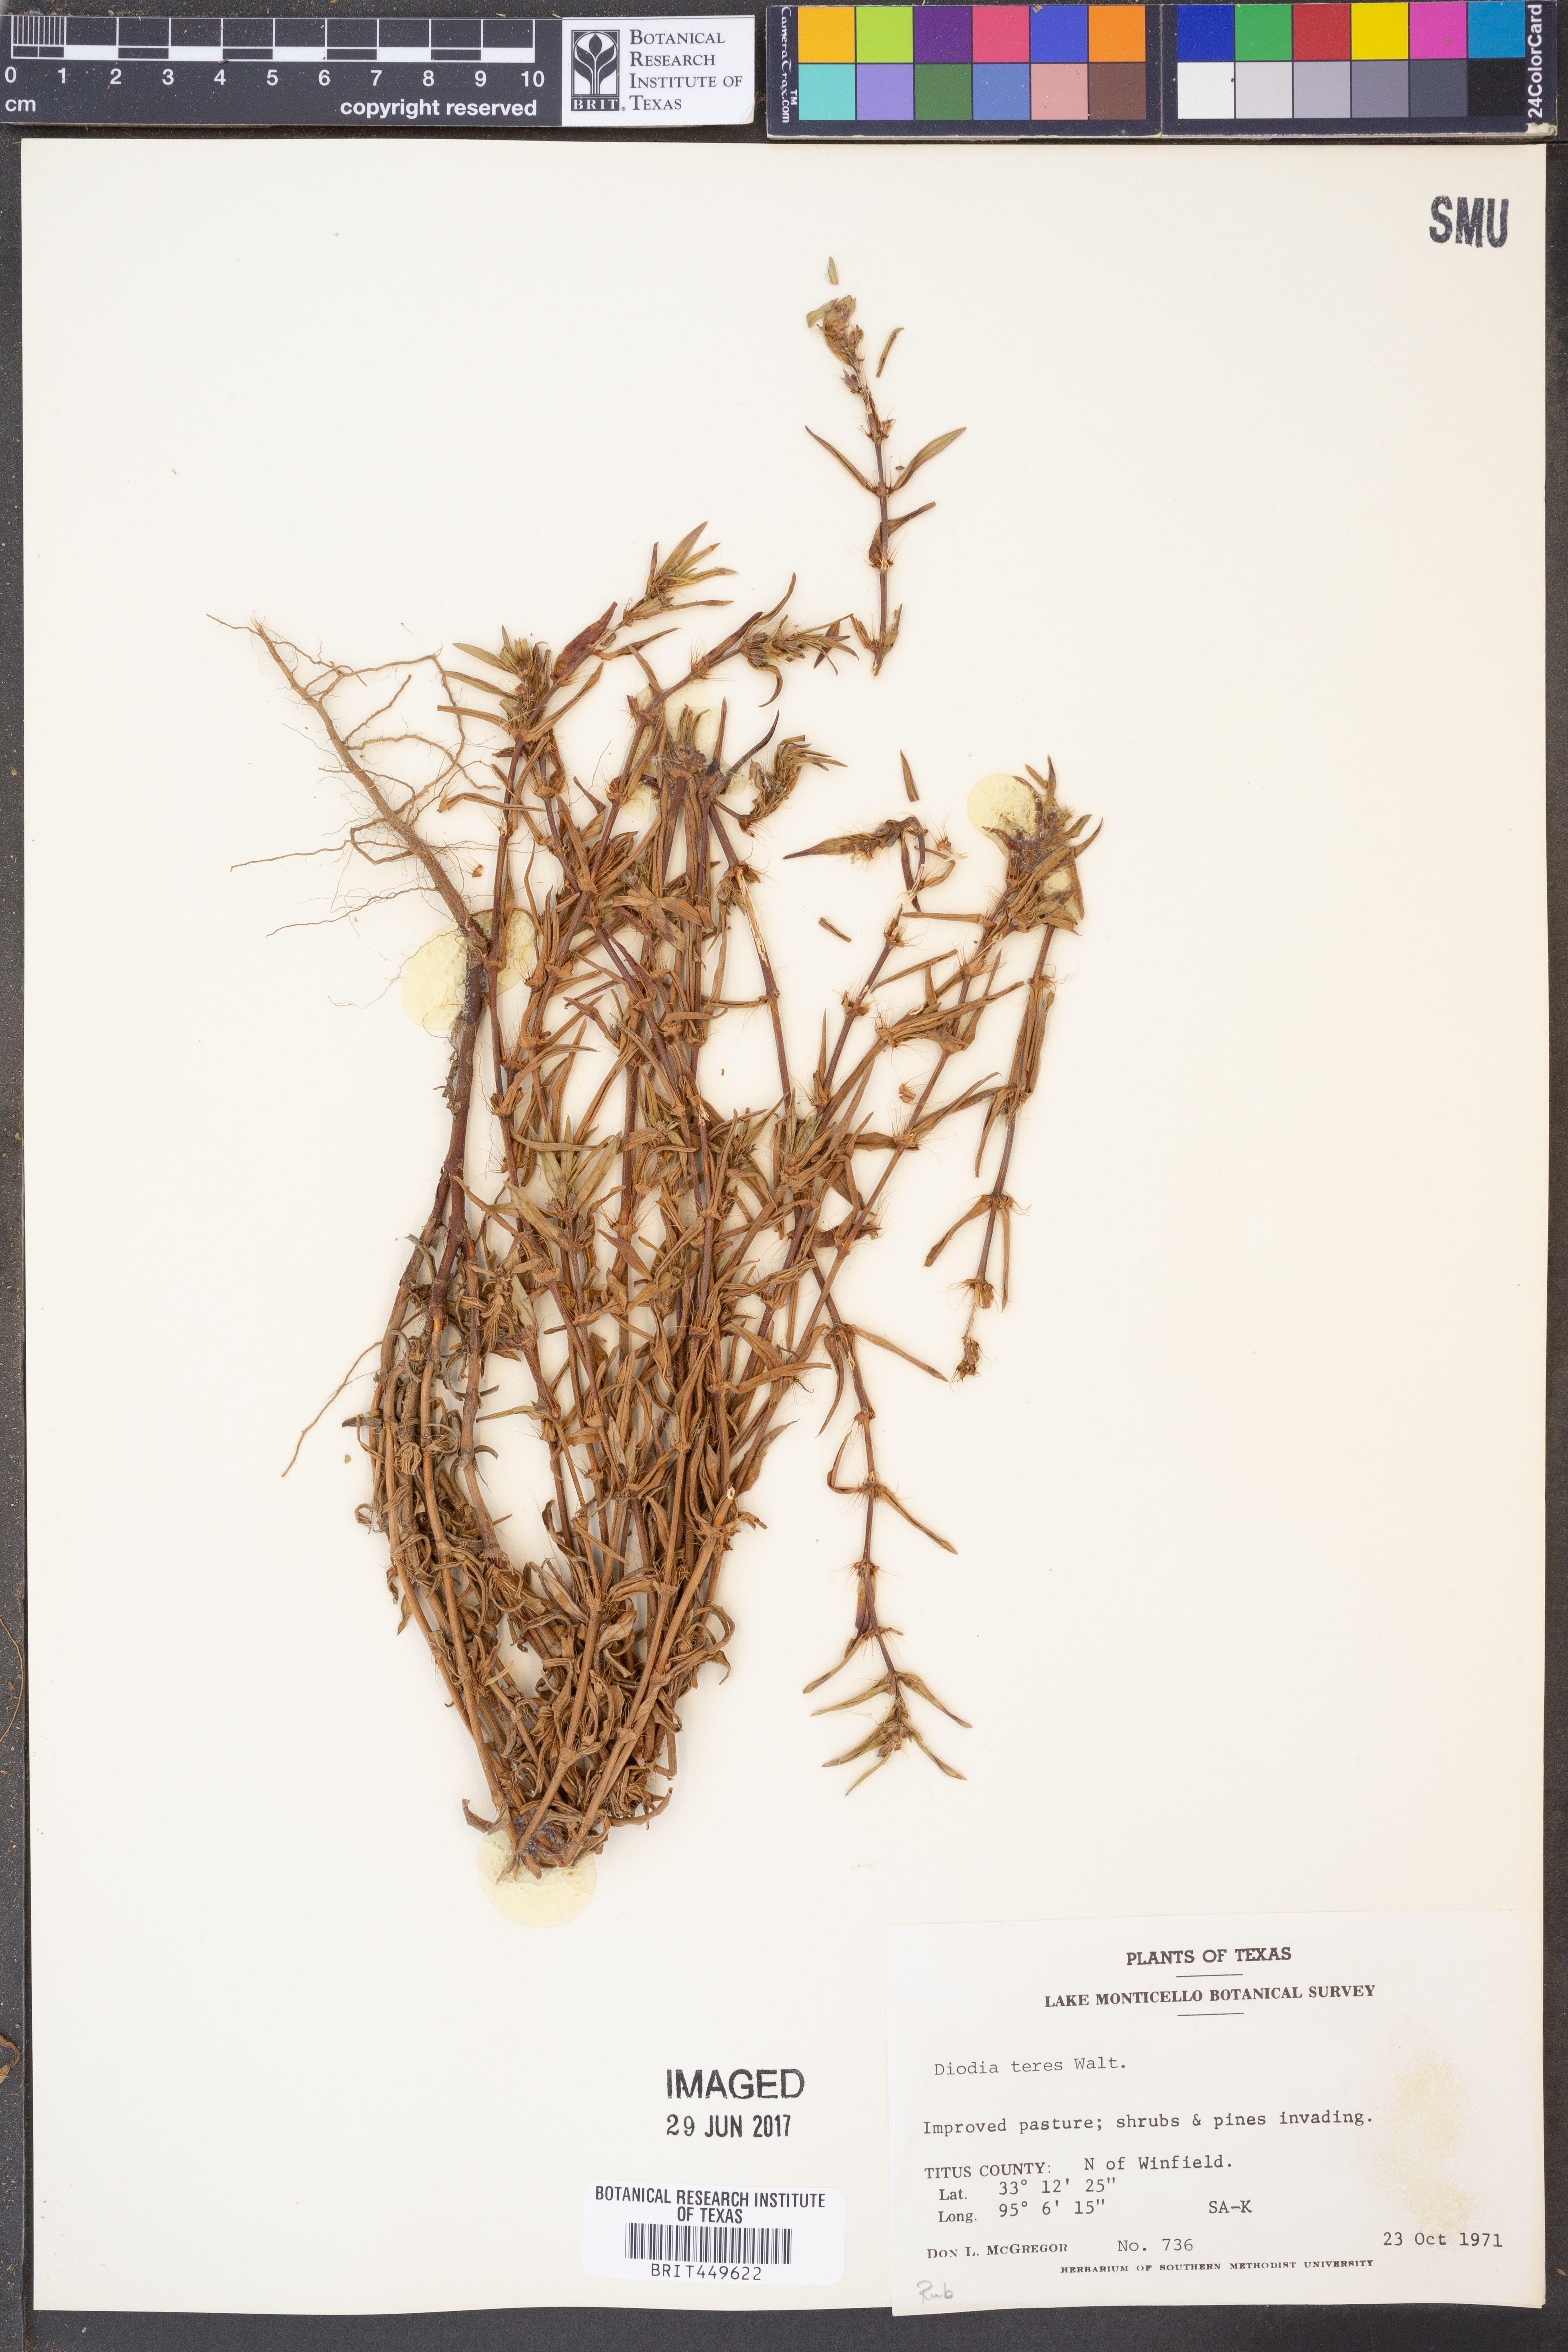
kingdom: Plantae
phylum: Tracheophyta
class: Magnoliopsida
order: Gentianales
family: Rubiaceae
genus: Hexasepalum
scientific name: Hexasepalum teres
